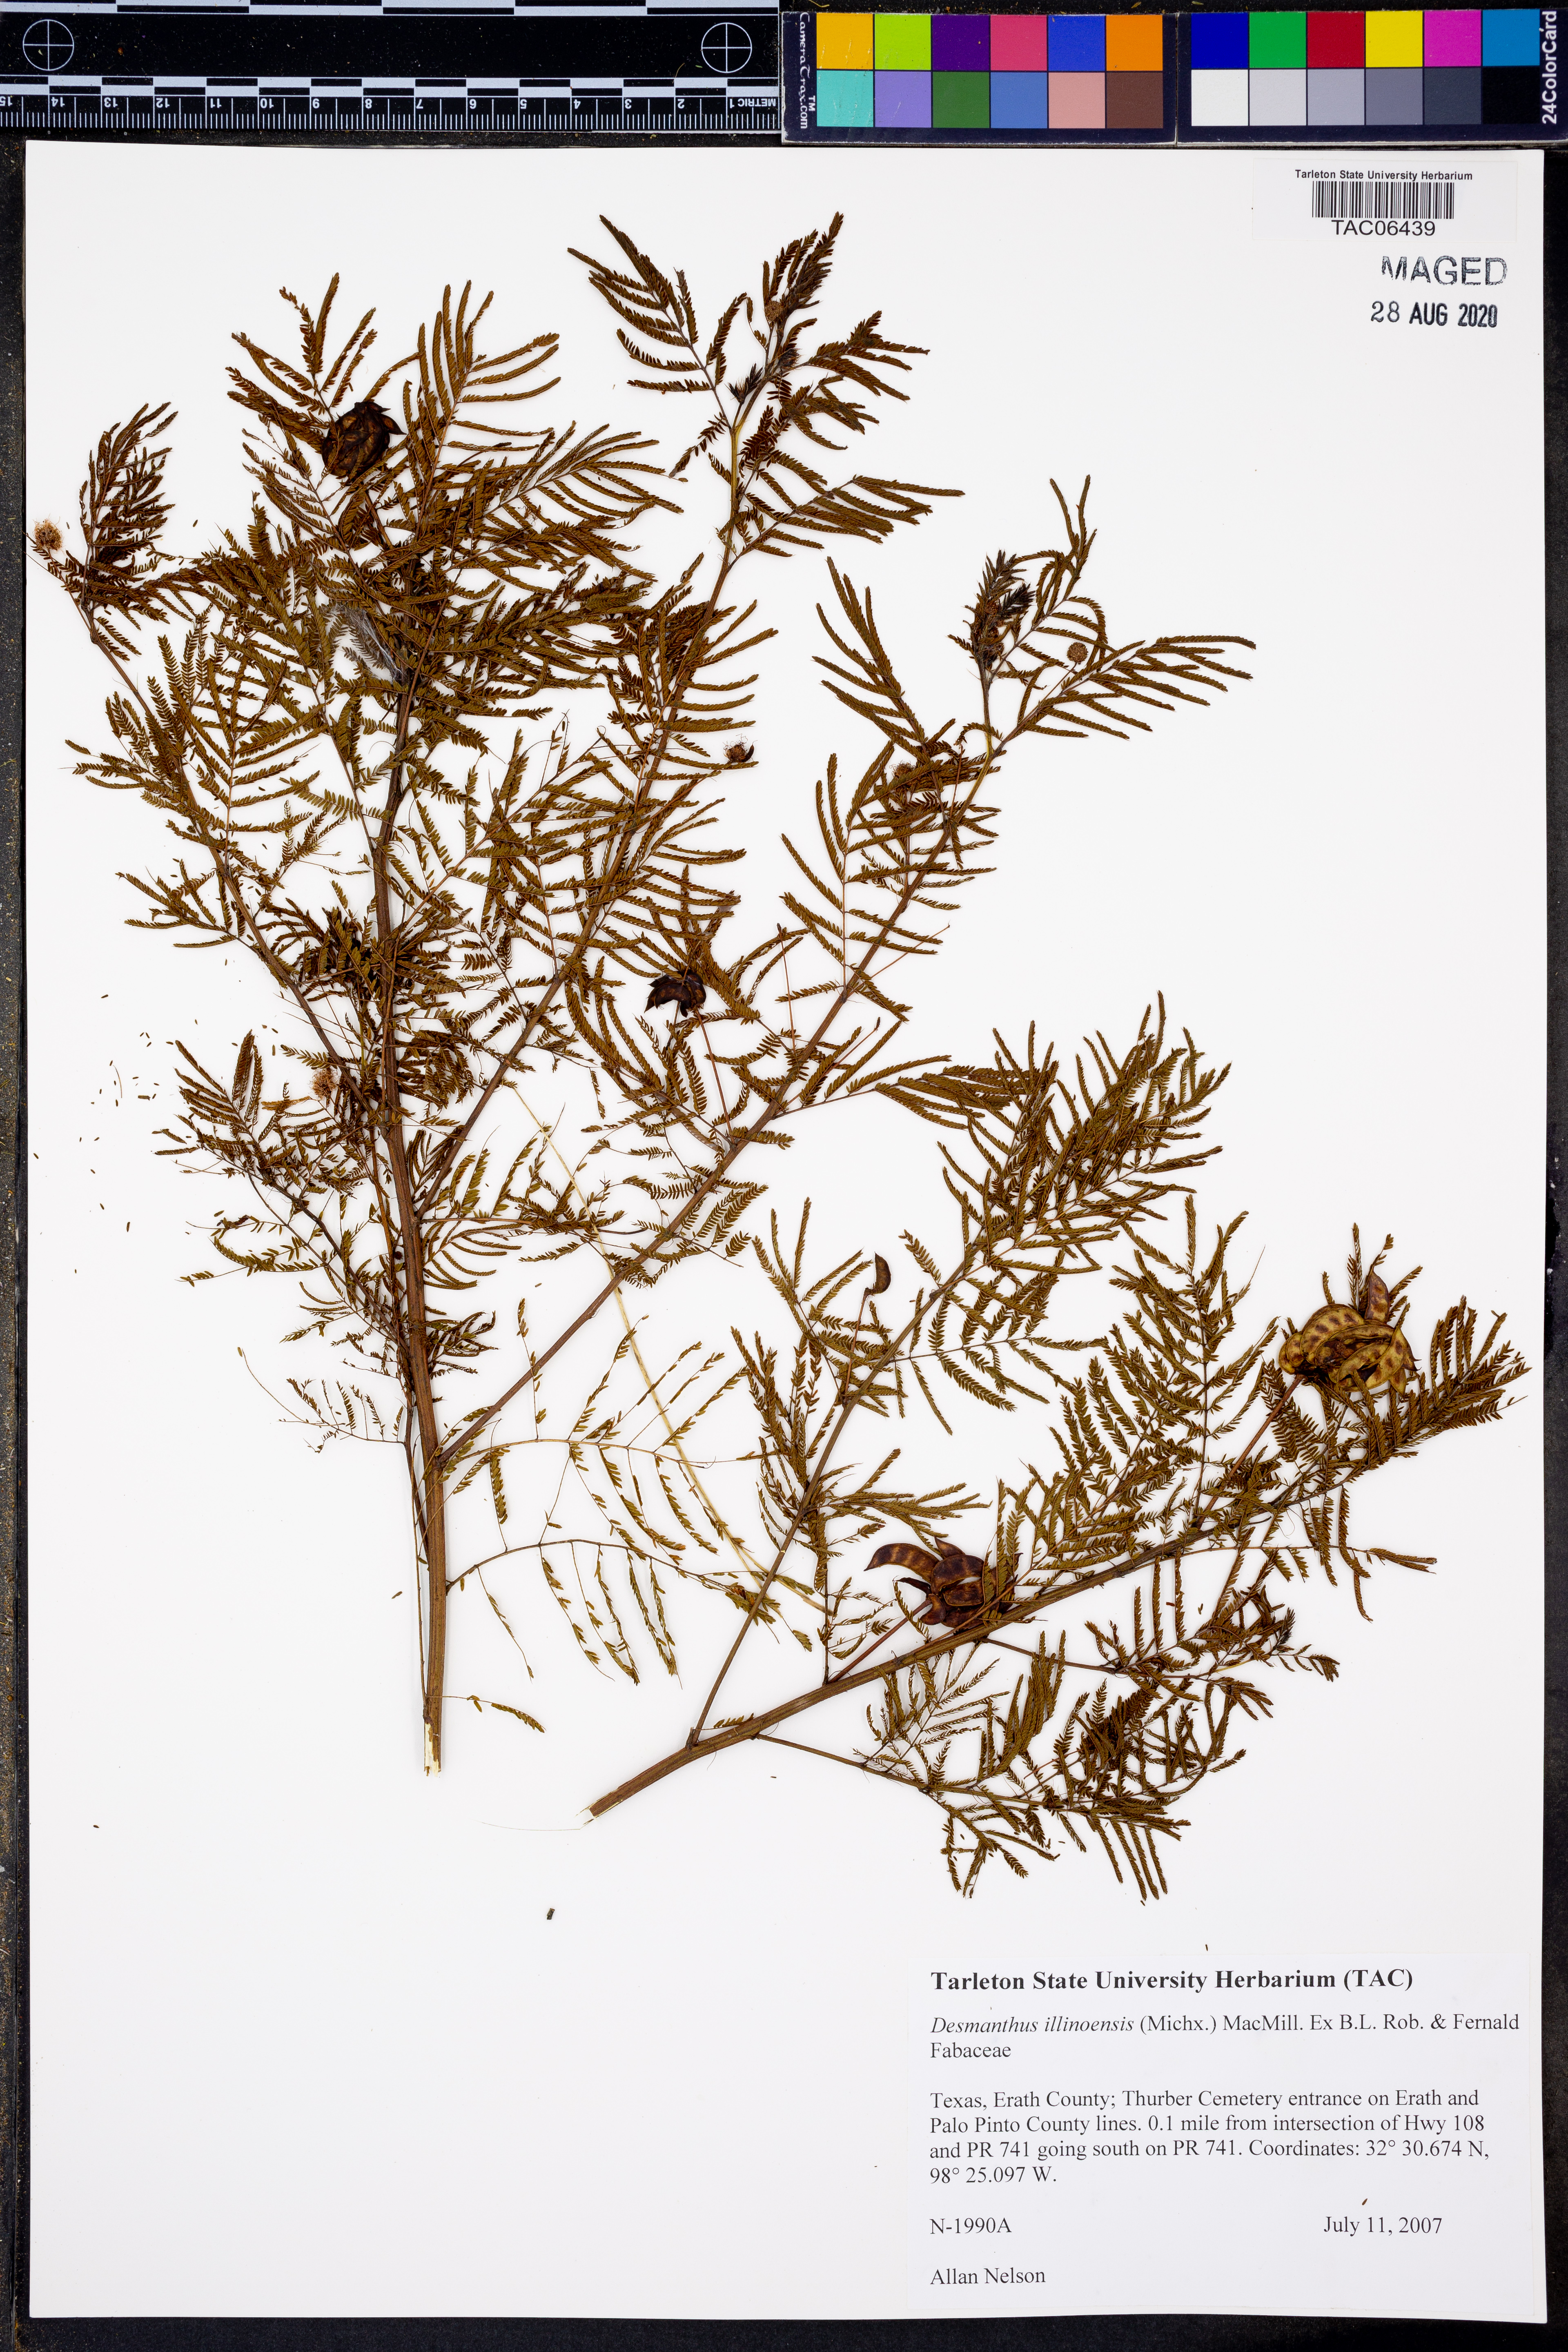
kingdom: Plantae
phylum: Tracheophyta
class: Magnoliopsida
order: Fabales
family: Fabaceae
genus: Desmanthus
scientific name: Desmanthus illinoensis
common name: Illinois bundle-flower
